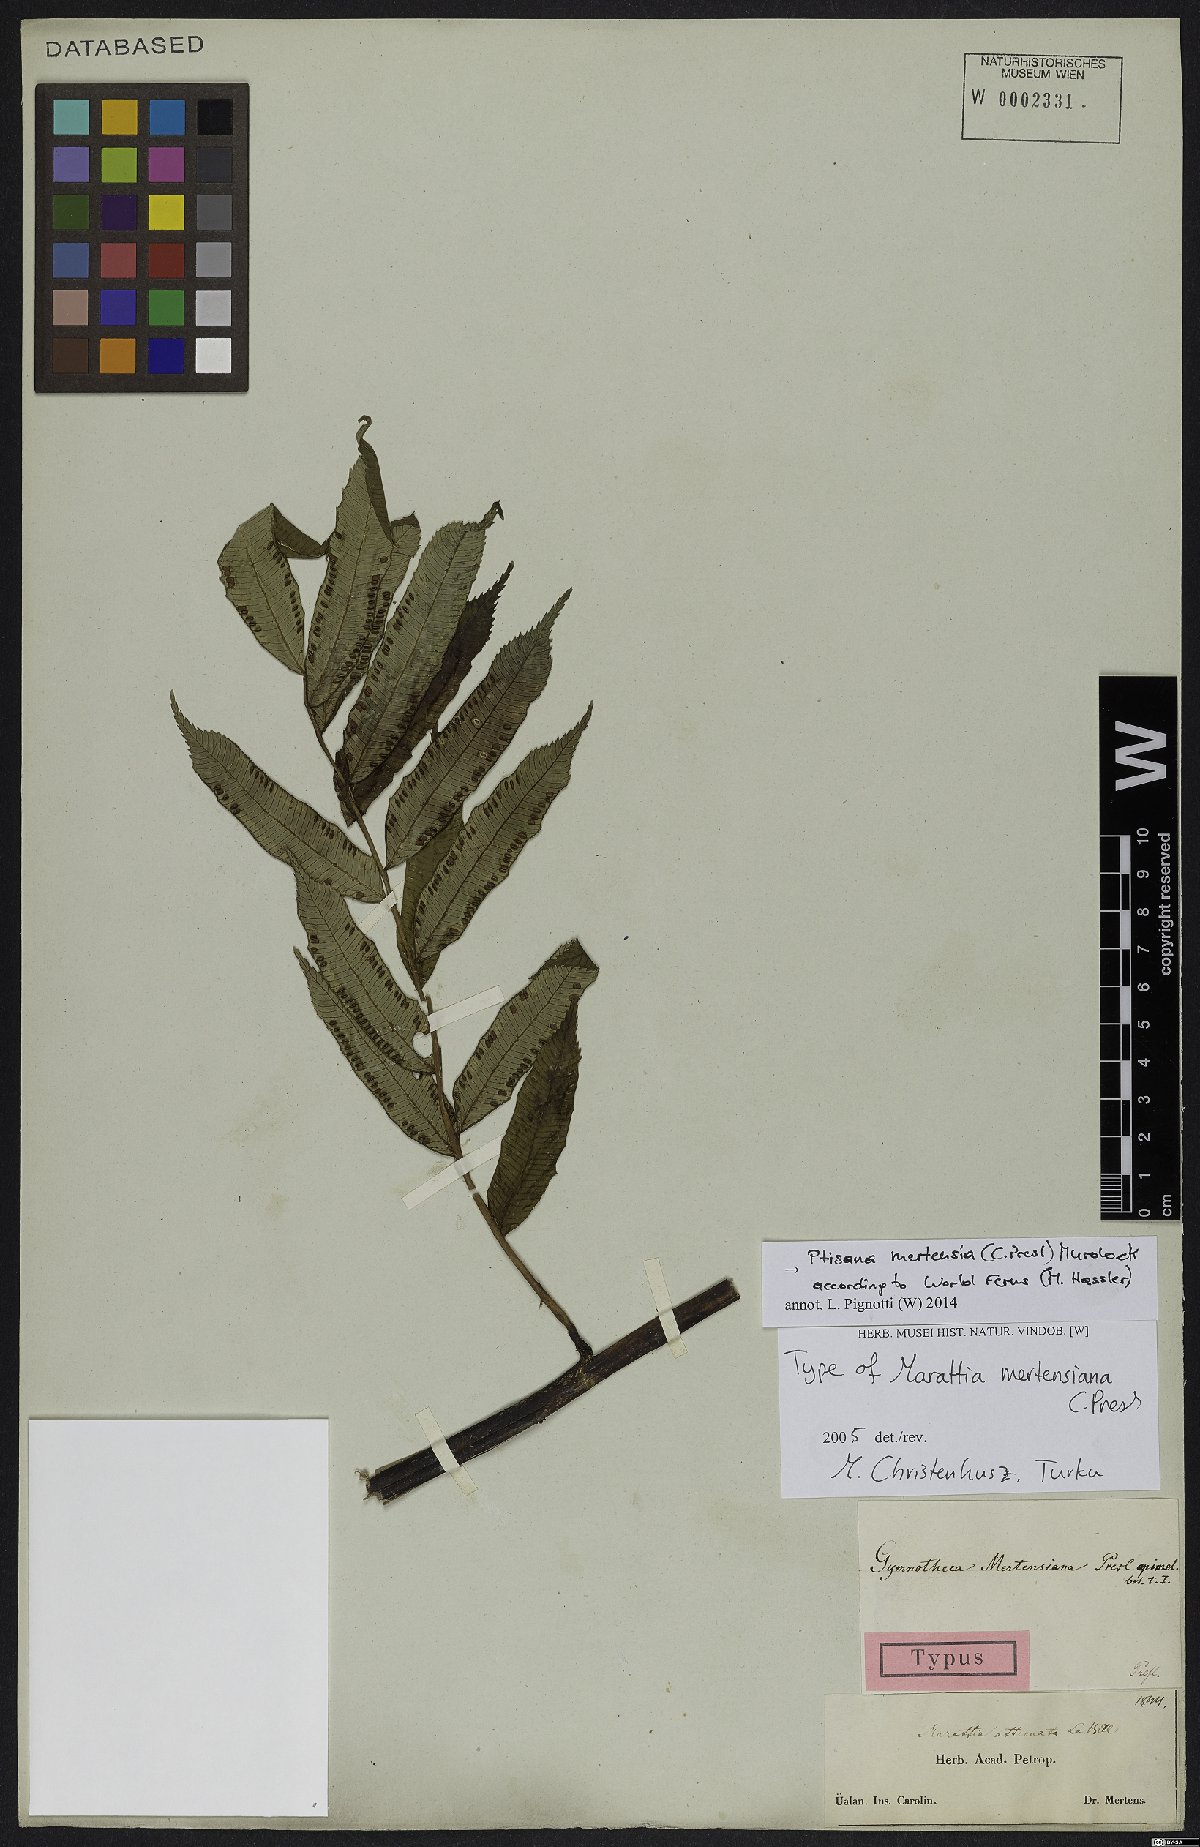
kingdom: Plantae
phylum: Tracheophyta
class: Polypodiopsida
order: Marattiales
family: Marattiaceae
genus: Ptisana
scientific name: Ptisana mertensiana
